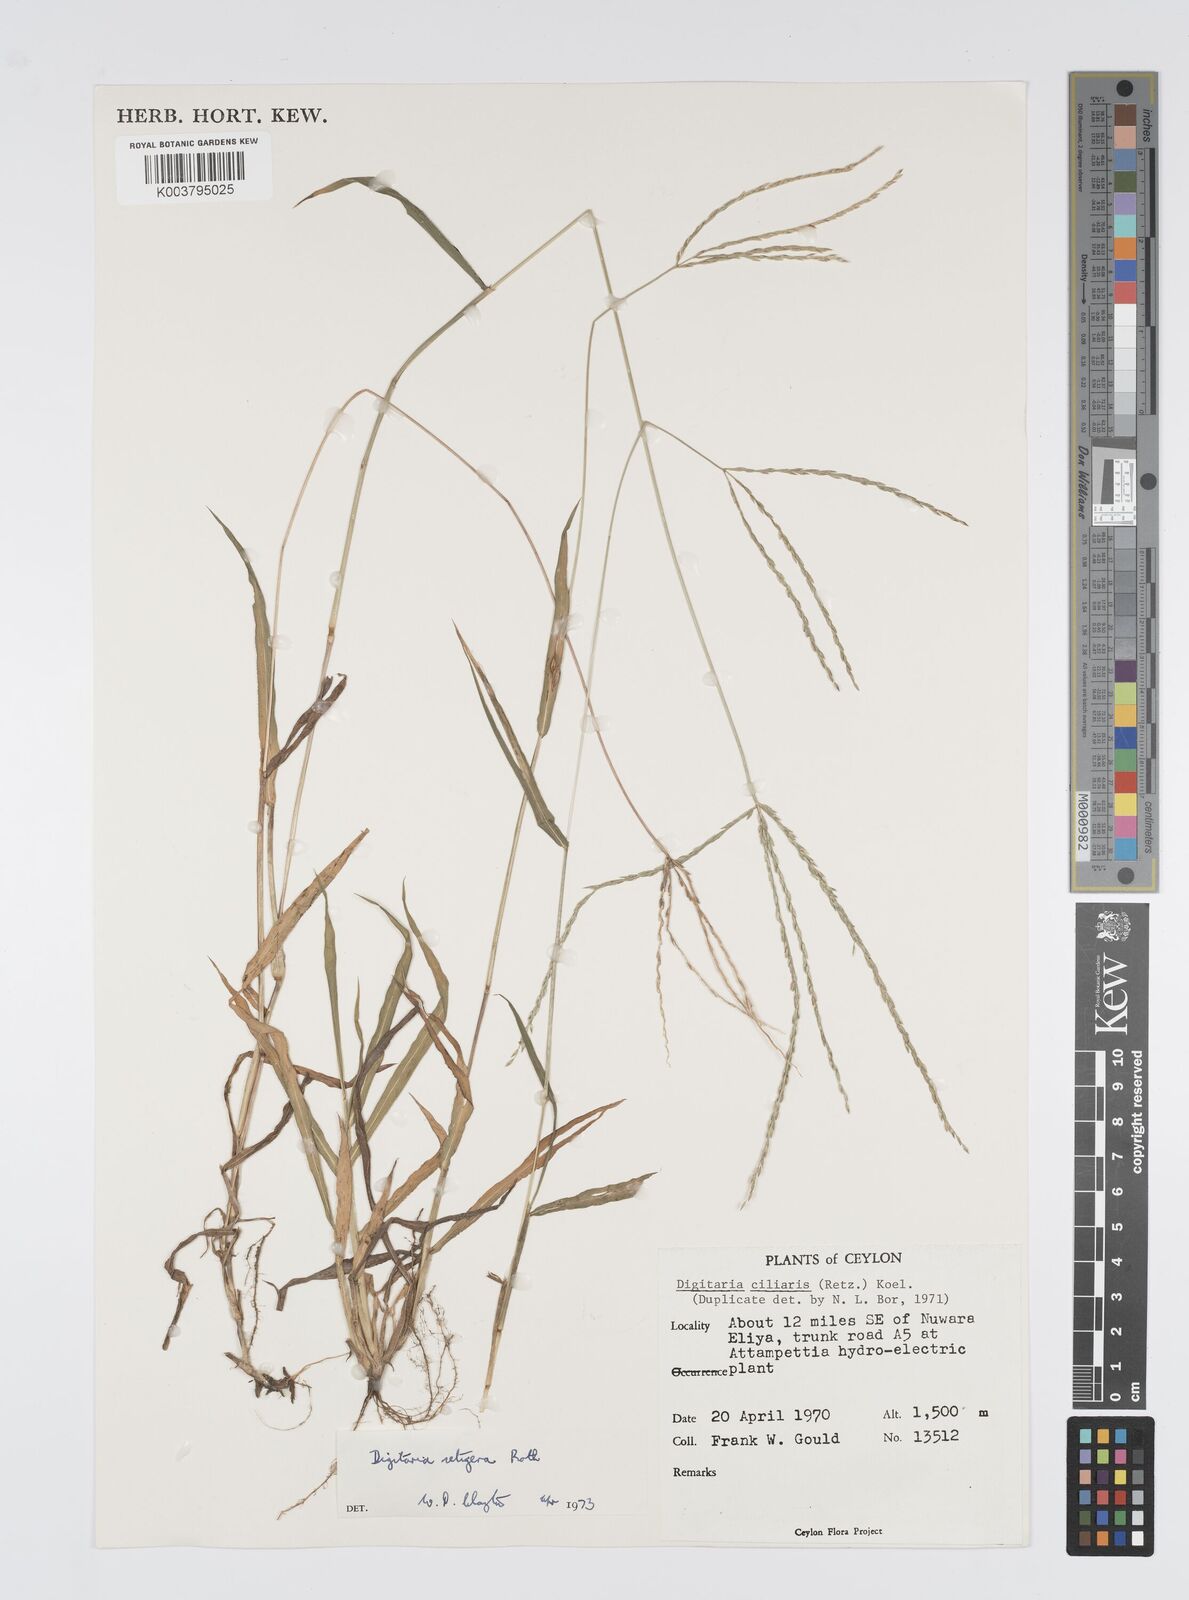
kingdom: Plantae
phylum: Tracheophyta
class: Liliopsida
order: Poales
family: Poaceae
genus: Digitaria
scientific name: Digitaria setigera
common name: East indian crabgrass
